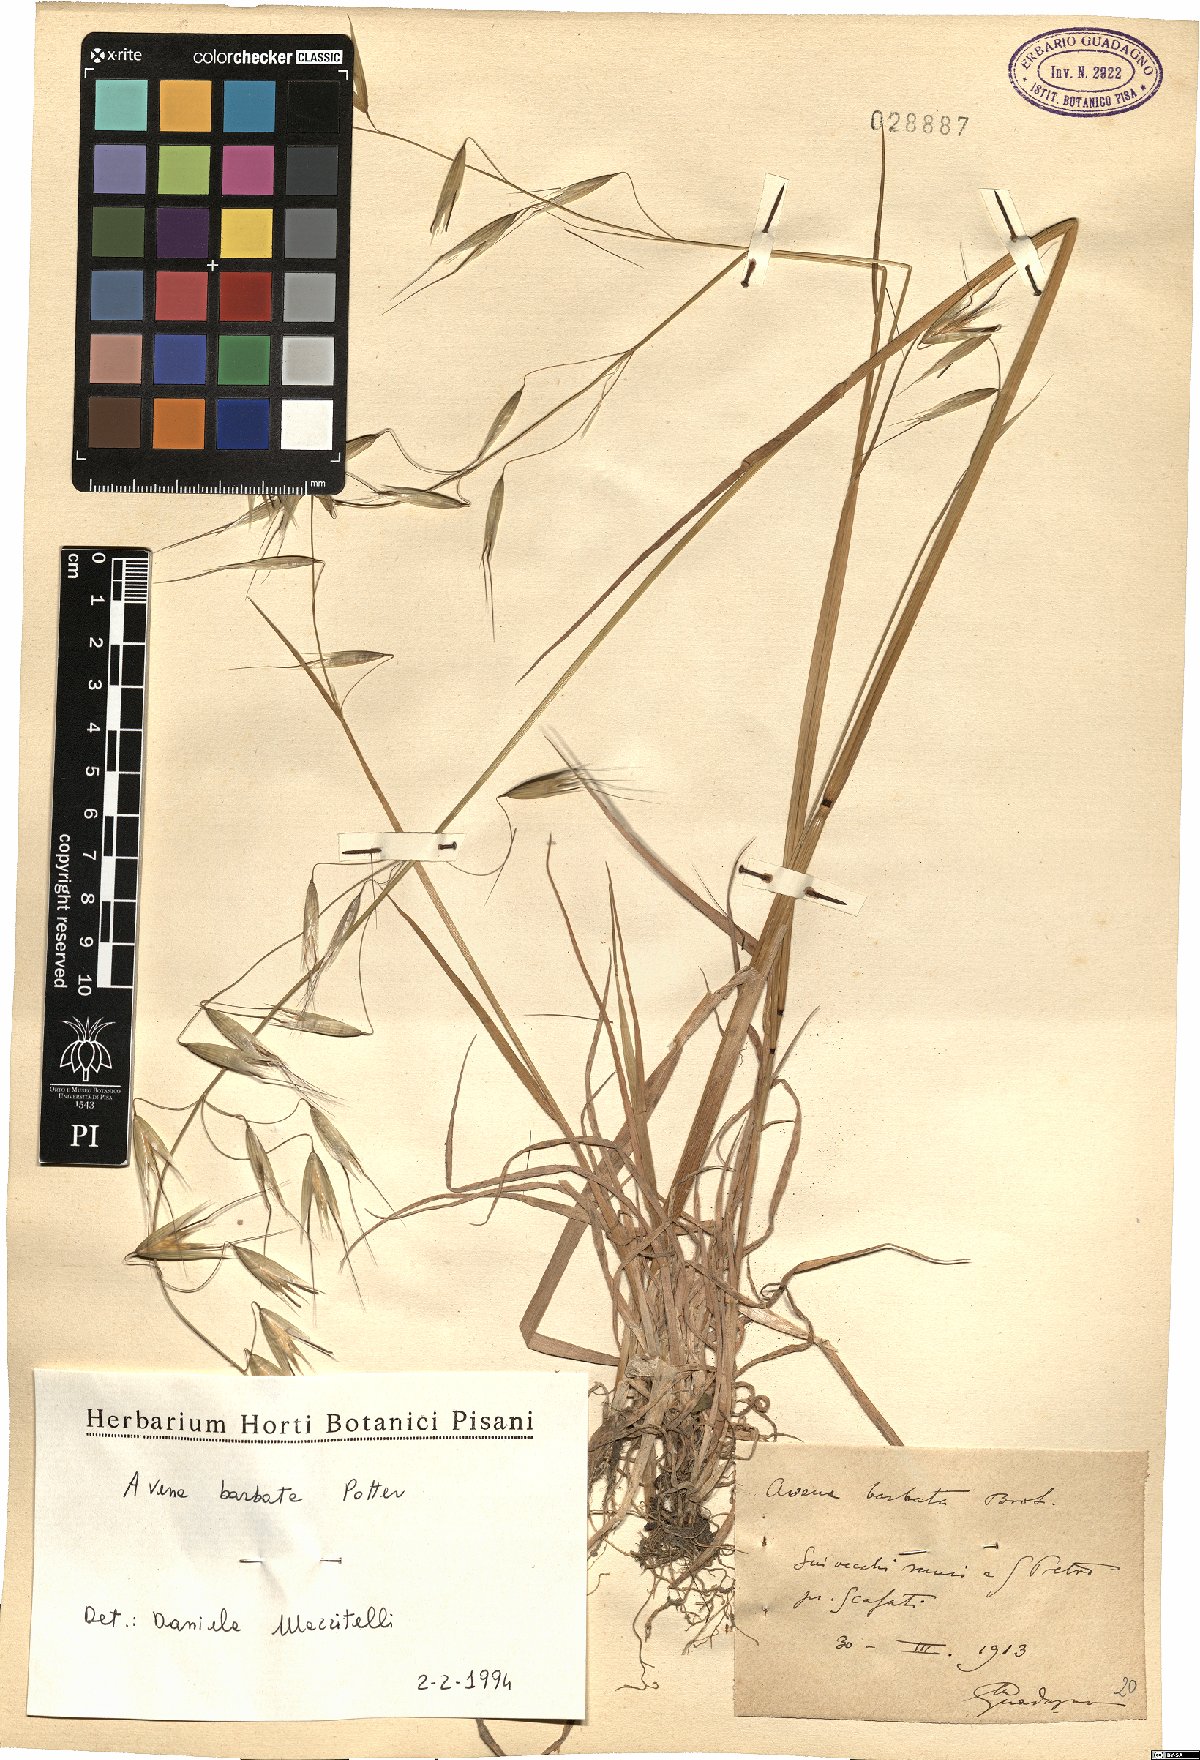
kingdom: Plantae
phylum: Tracheophyta
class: Liliopsida
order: Poales
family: Poaceae
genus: Avena
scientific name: Avena barbata
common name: Slender oat
